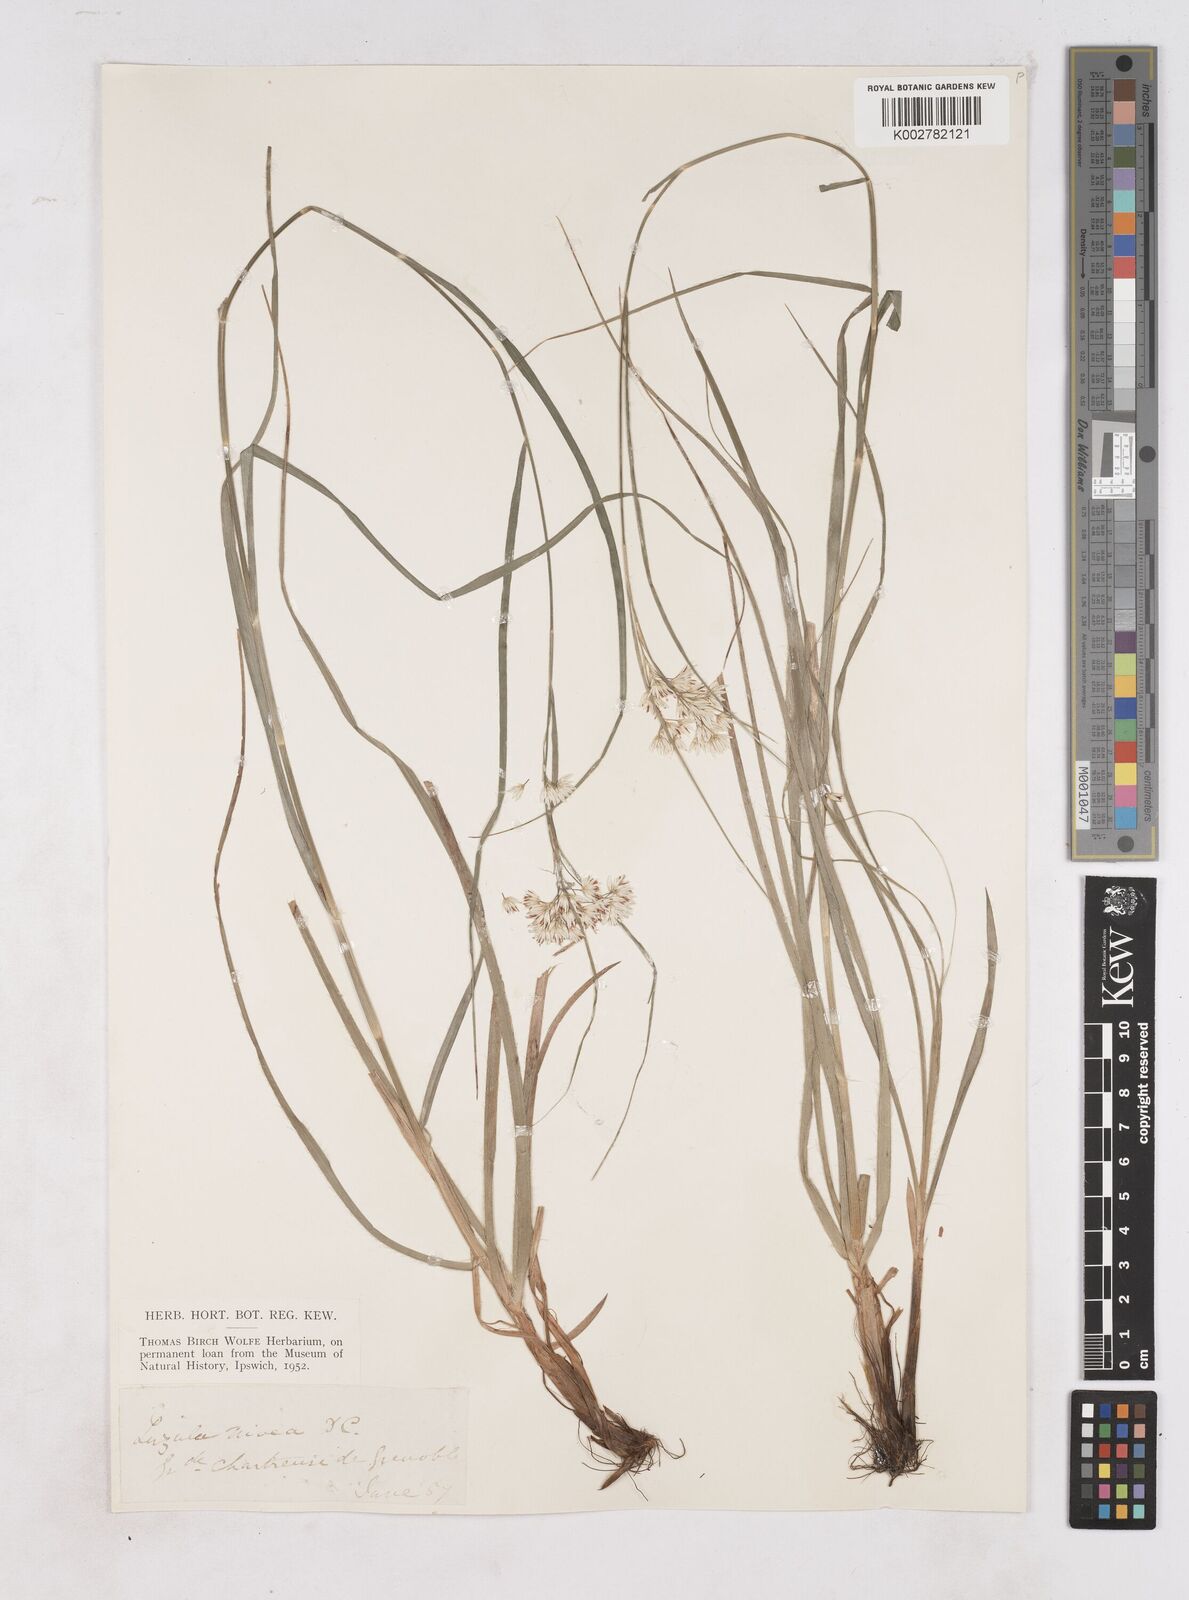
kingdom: Plantae
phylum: Tracheophyta
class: Liliopsida
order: Poales
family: Juncaceae
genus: Luzula
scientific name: Luzula nivea
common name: Snow-white wood-rush
